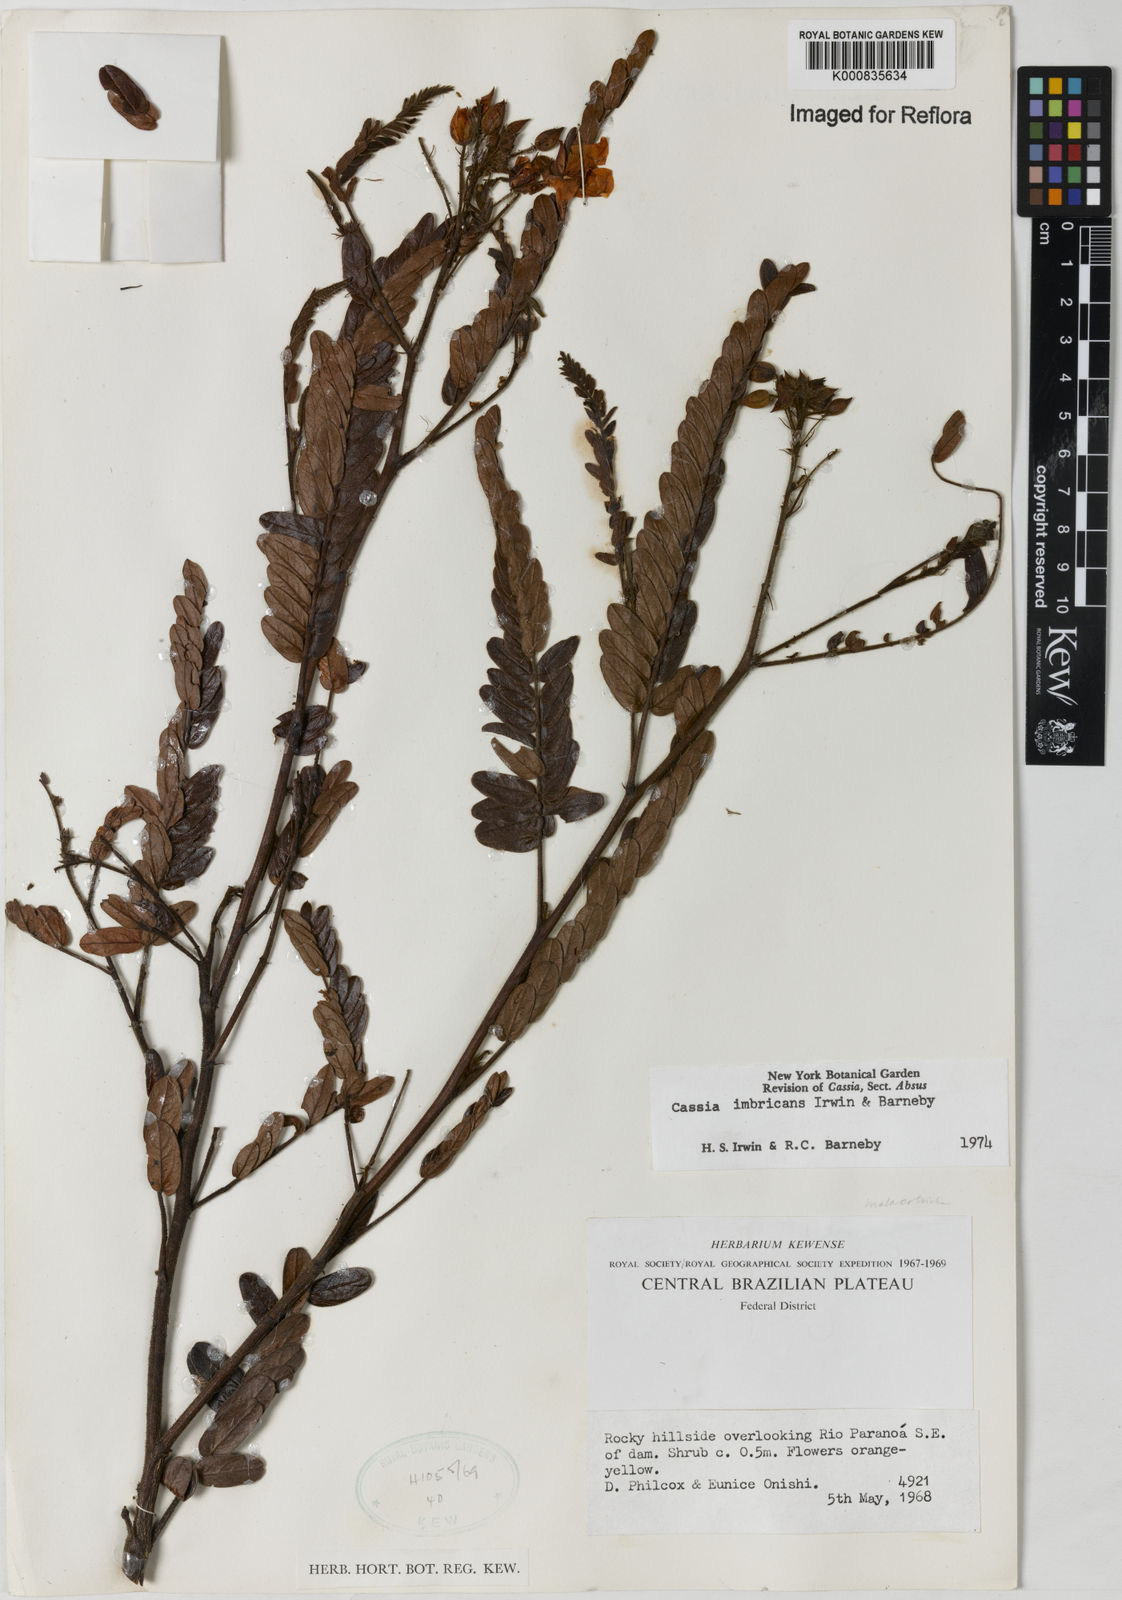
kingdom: Plantae
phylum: Tracheophyta
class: Magnoliopsida
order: Fabales
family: Fabaceae
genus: Chamaecrista
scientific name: Chamaecrista imbricans
